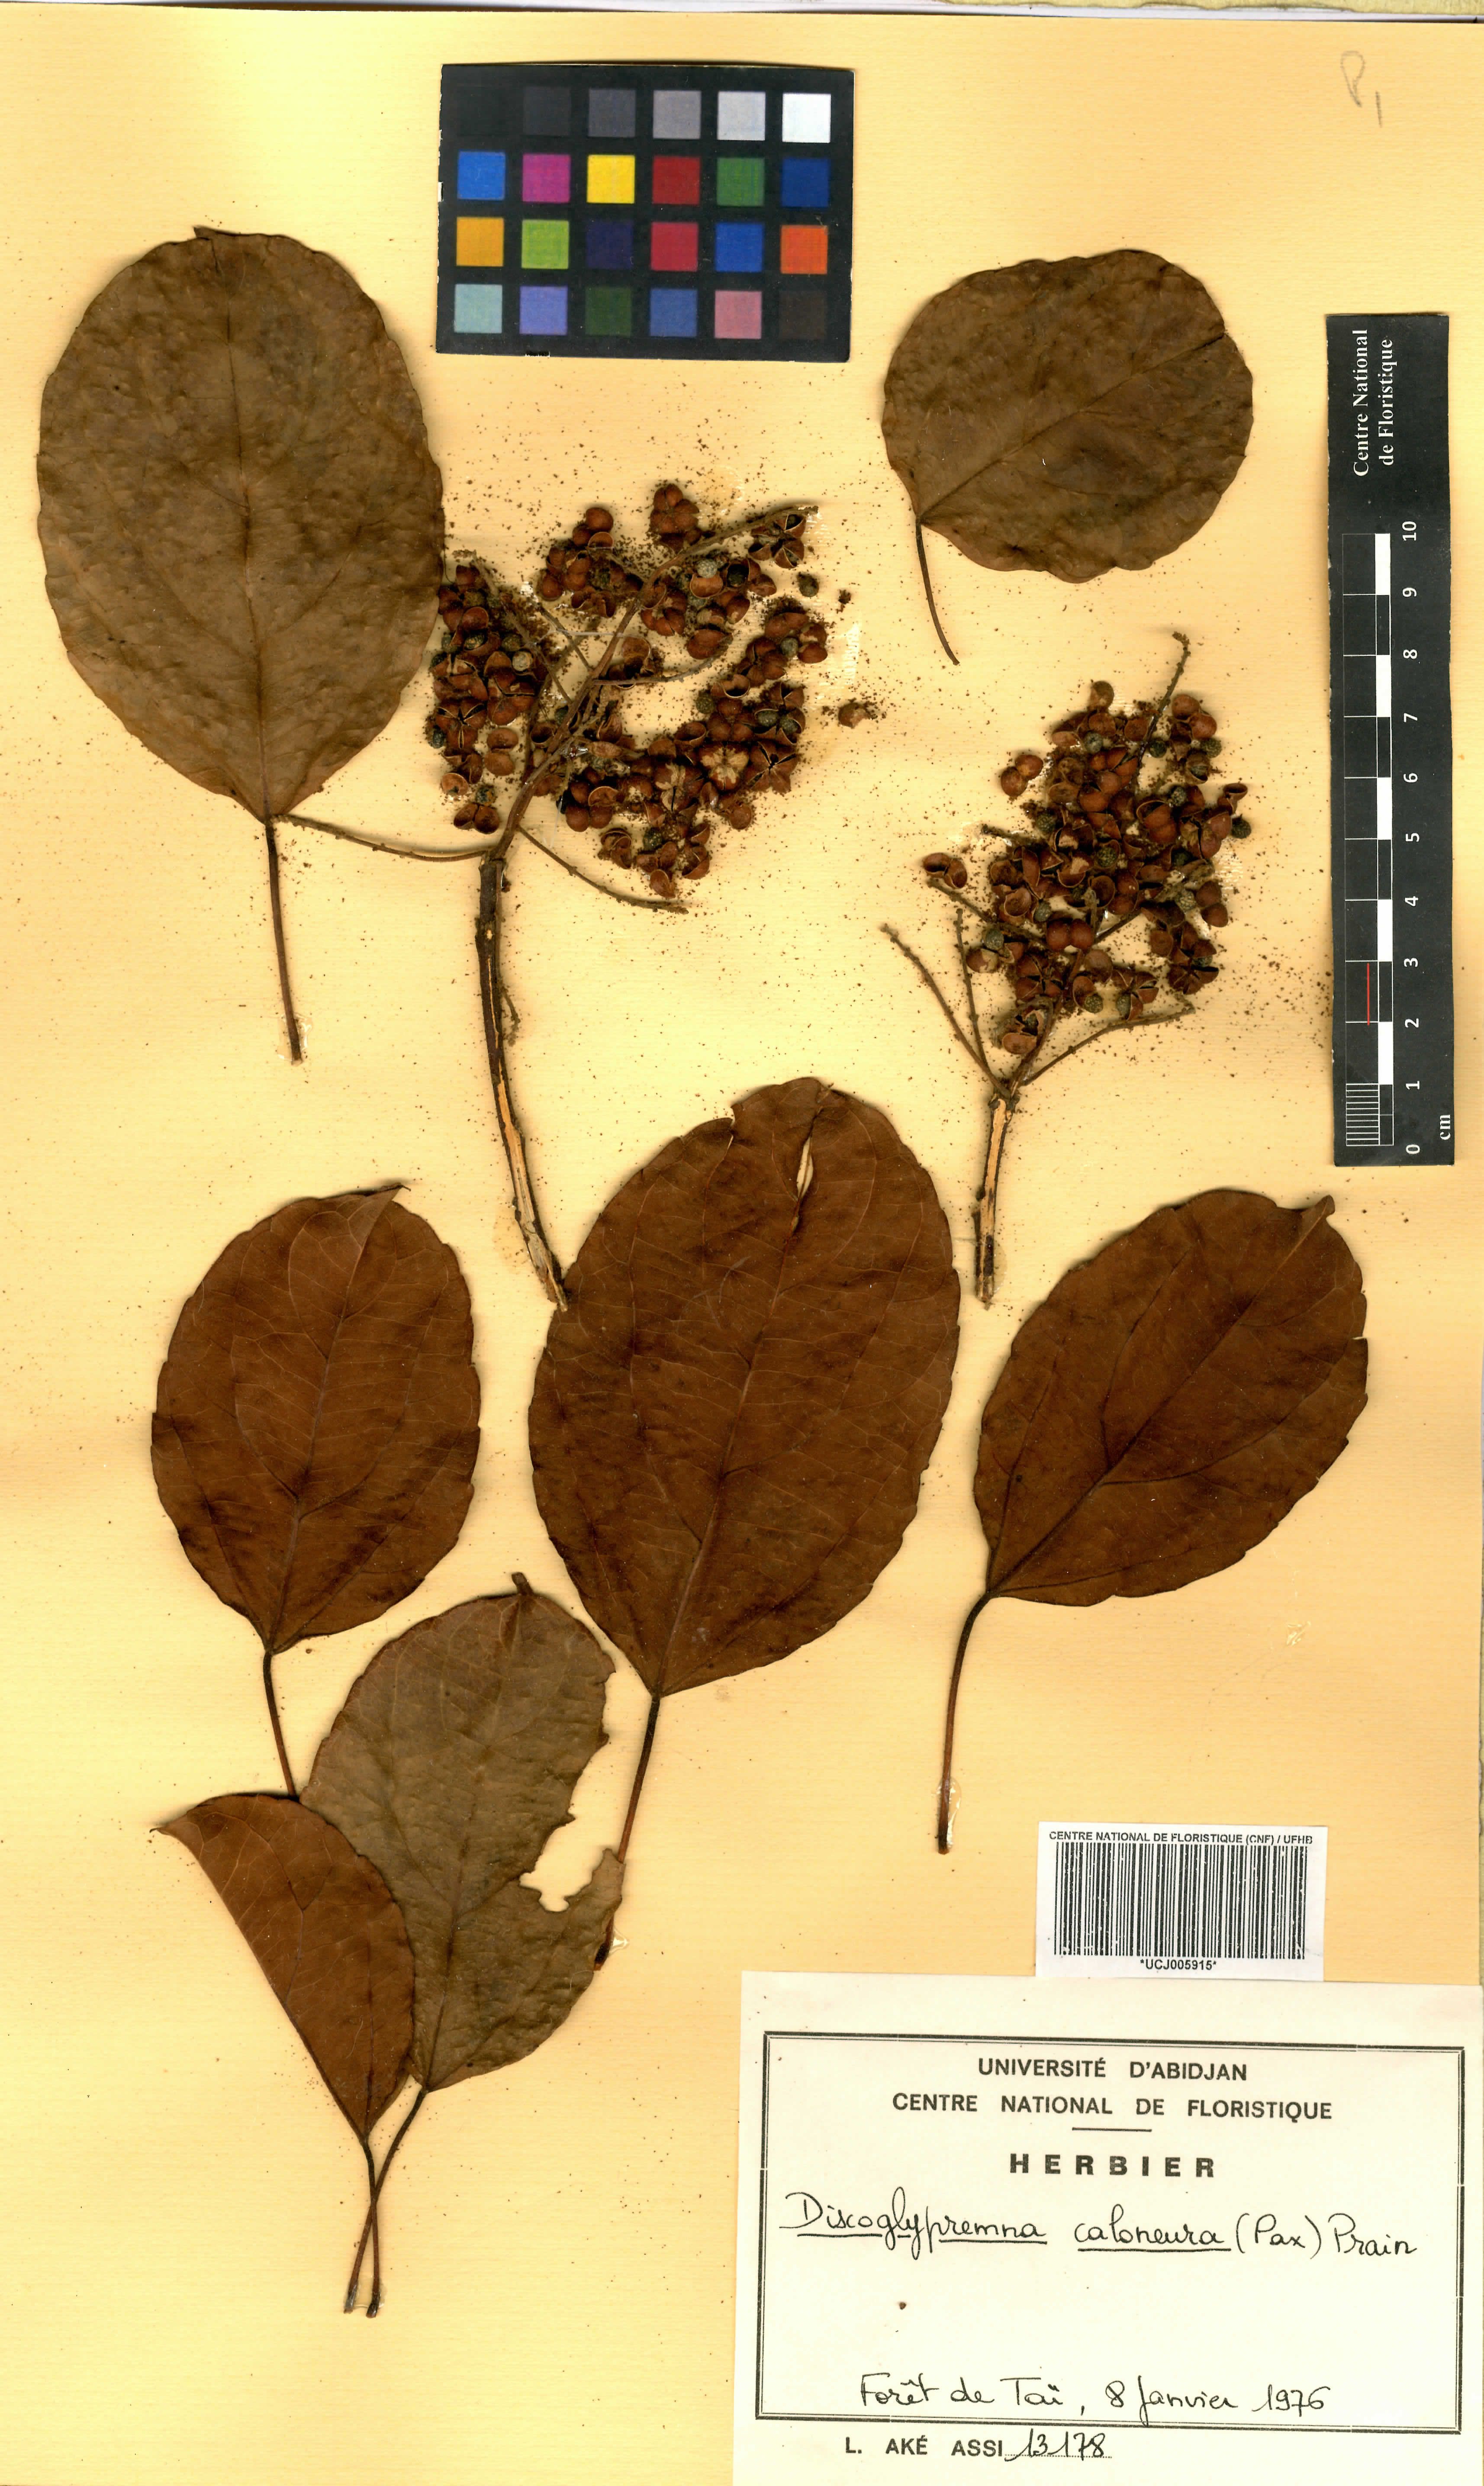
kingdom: Plantae
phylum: Tracheophyta
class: Magnoliopsida
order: Malpighiales
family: Euphorbiaceae
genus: Discoglypremna
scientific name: Discoglypremna caloneura
